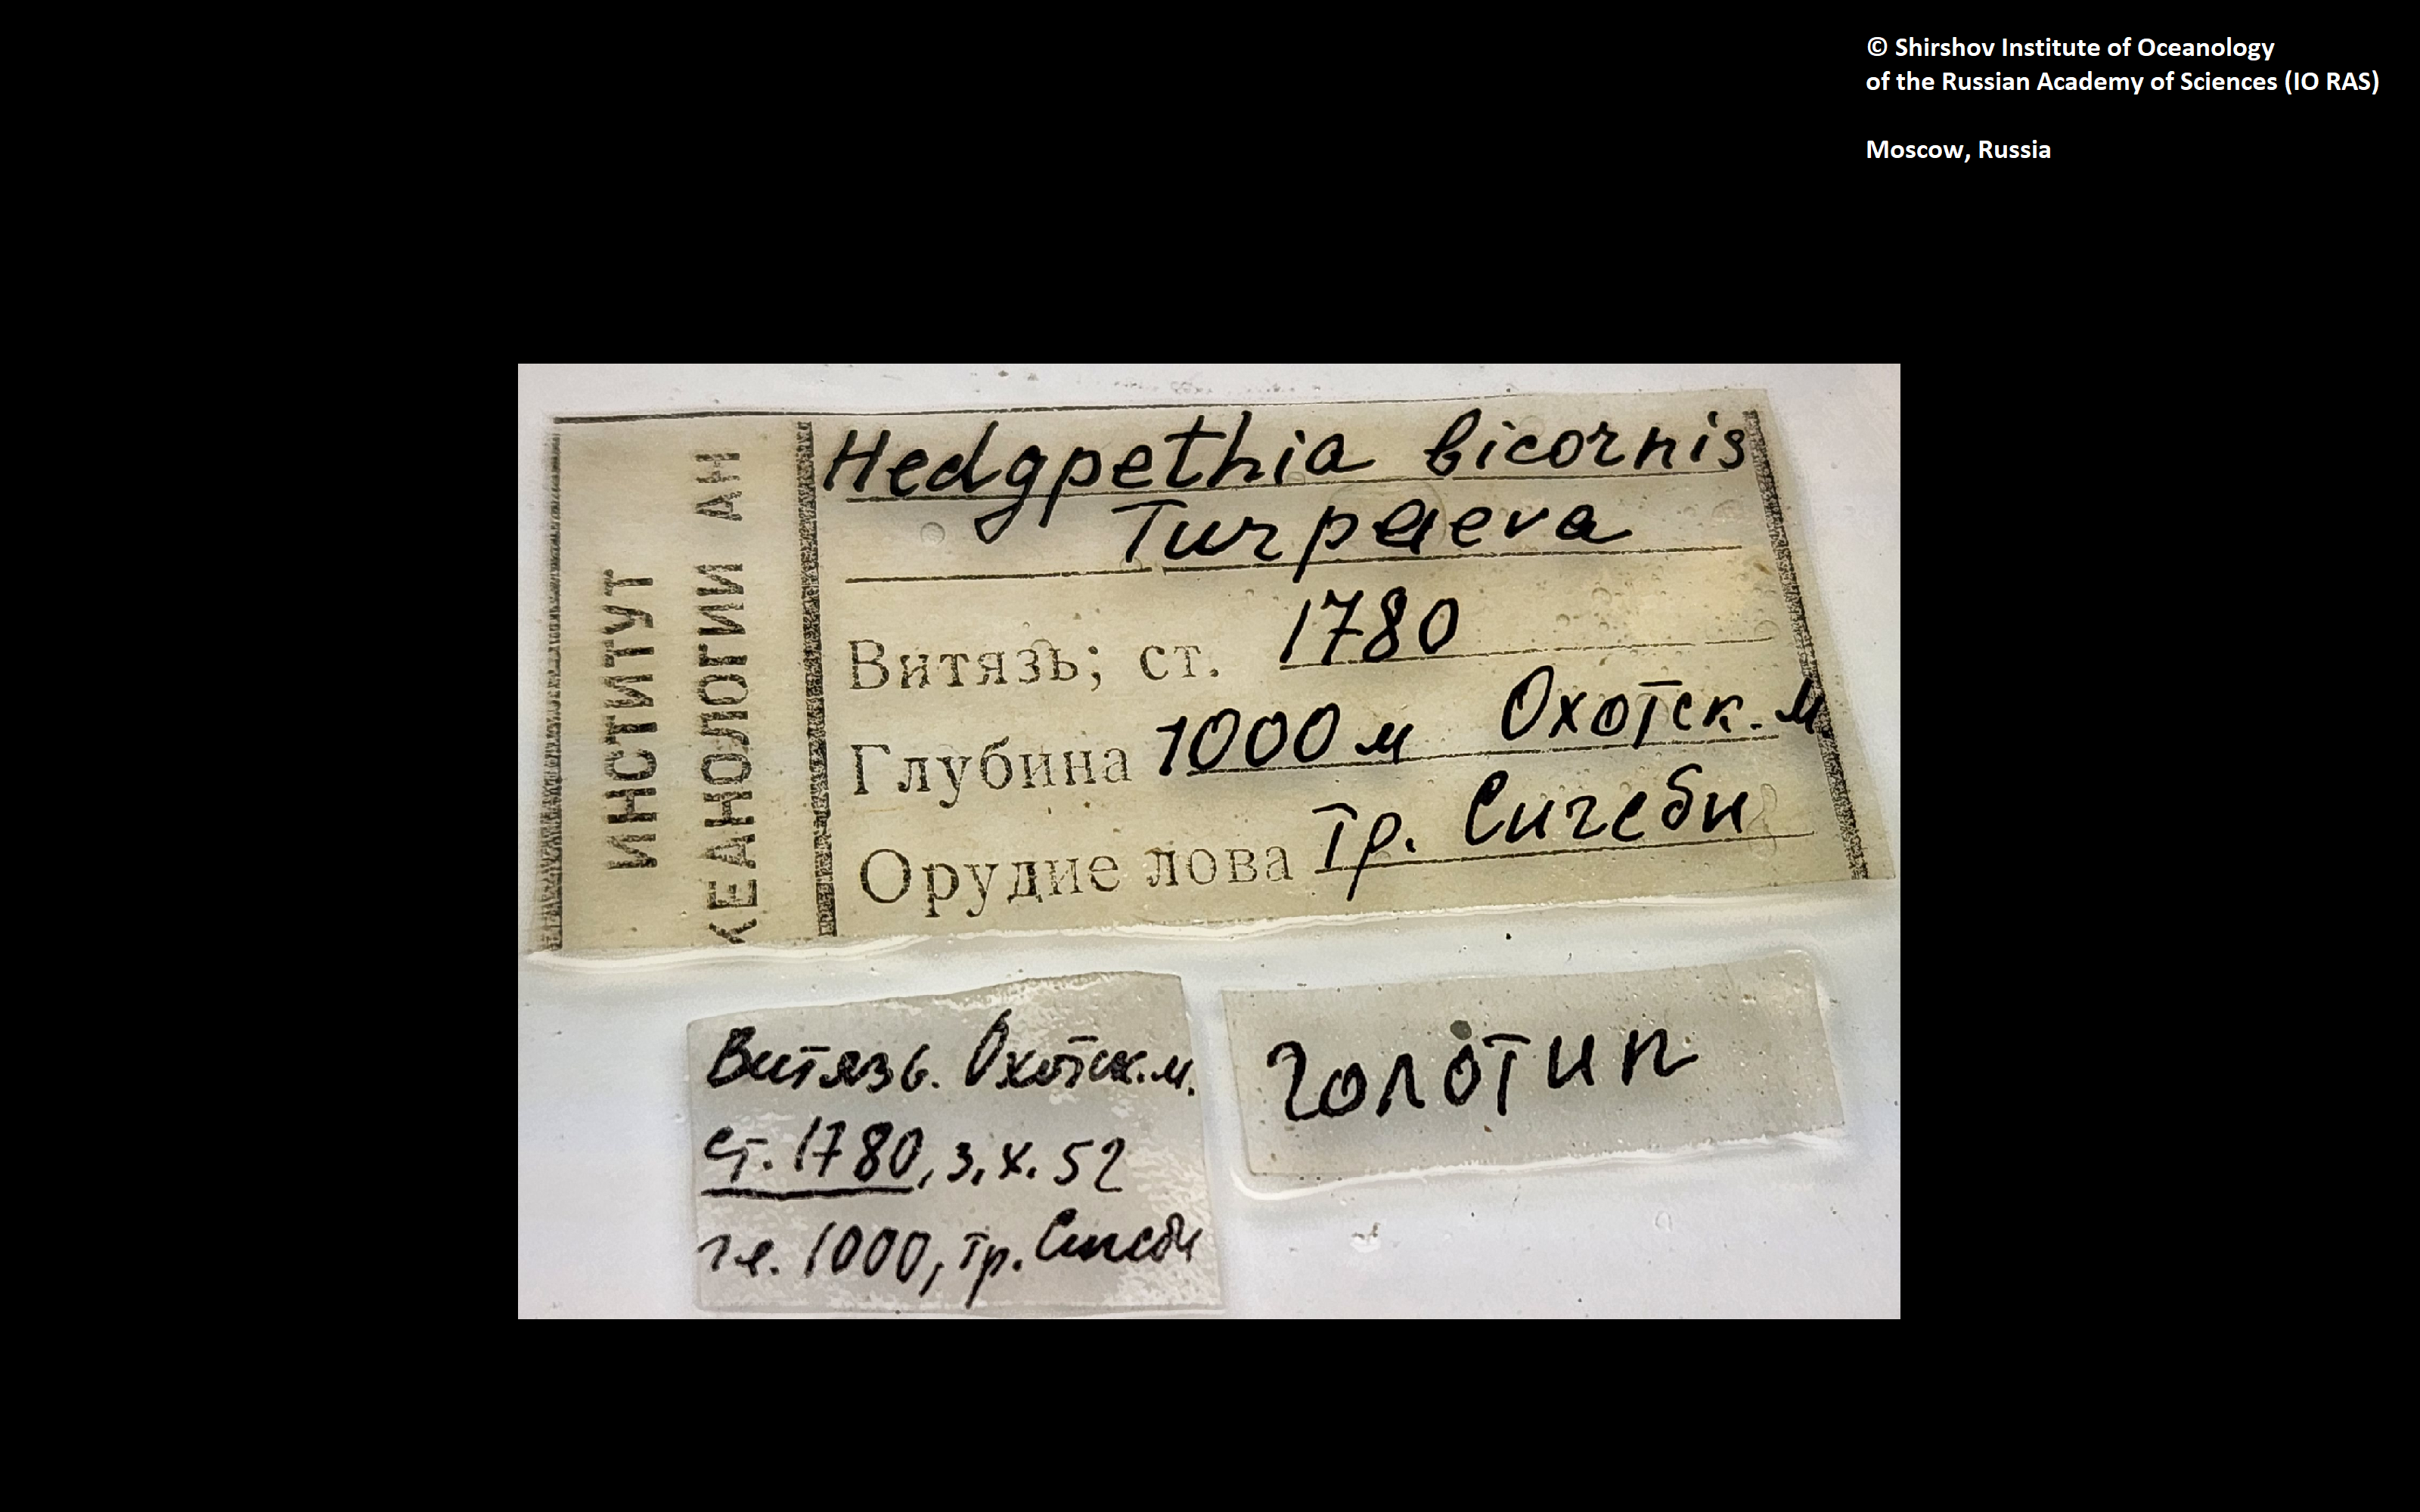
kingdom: Animalia
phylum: Arthropoda
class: Pycnogonida
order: Pantopoda
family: Colossendeidae
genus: Hedgpethia
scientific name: Hedgpethia californica
